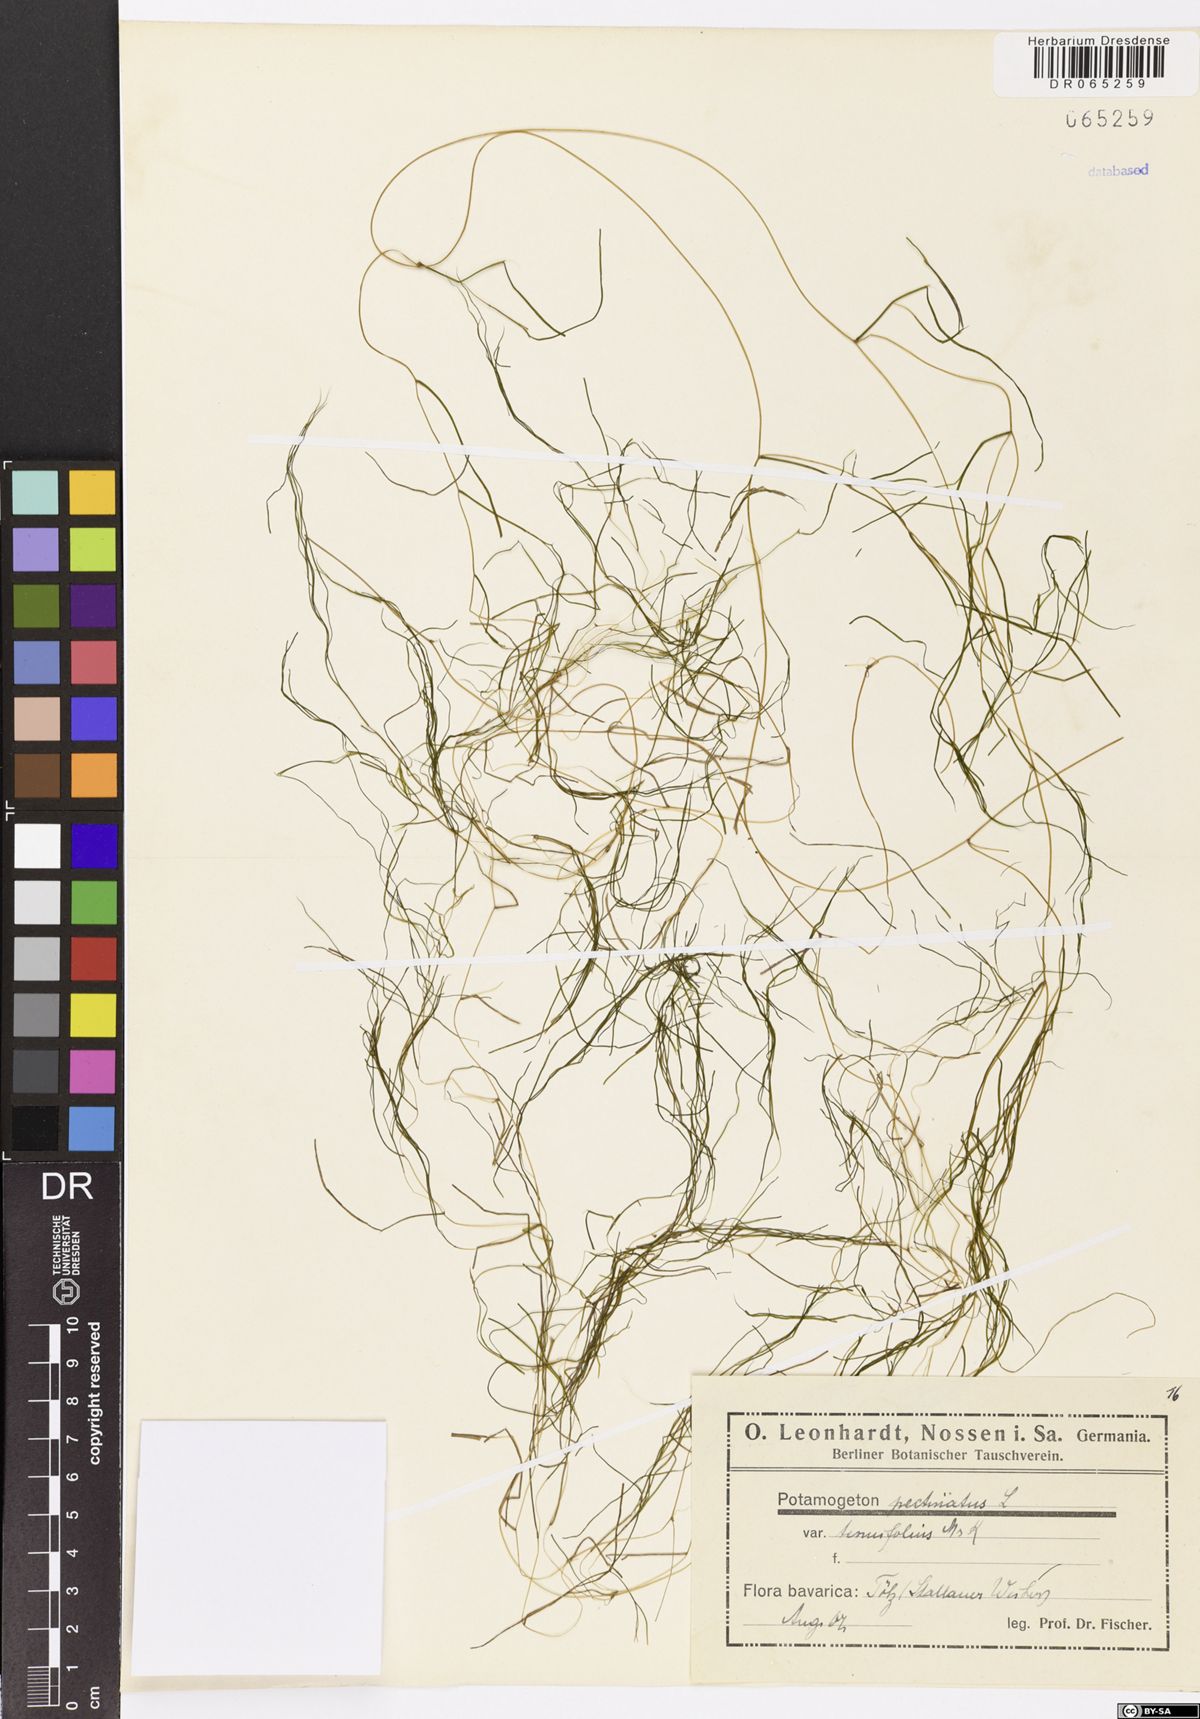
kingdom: Plantae
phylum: Tracheophyta
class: Liliopsida
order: Alismatales
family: Potamogetonaceae
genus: Stuckenia
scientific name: Stuckenia pectinata
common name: Sago pondweed
